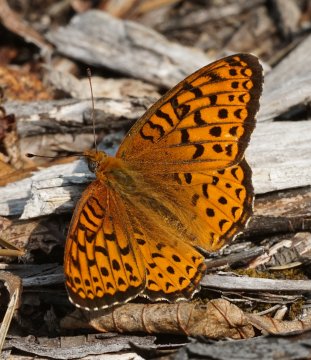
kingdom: Animalia
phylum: Arthropoda
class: Insecta
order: Lepidoptera
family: Nymphalidae
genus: Speyeria
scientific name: Speyeria atlantis
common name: Atlantis Fritillary
